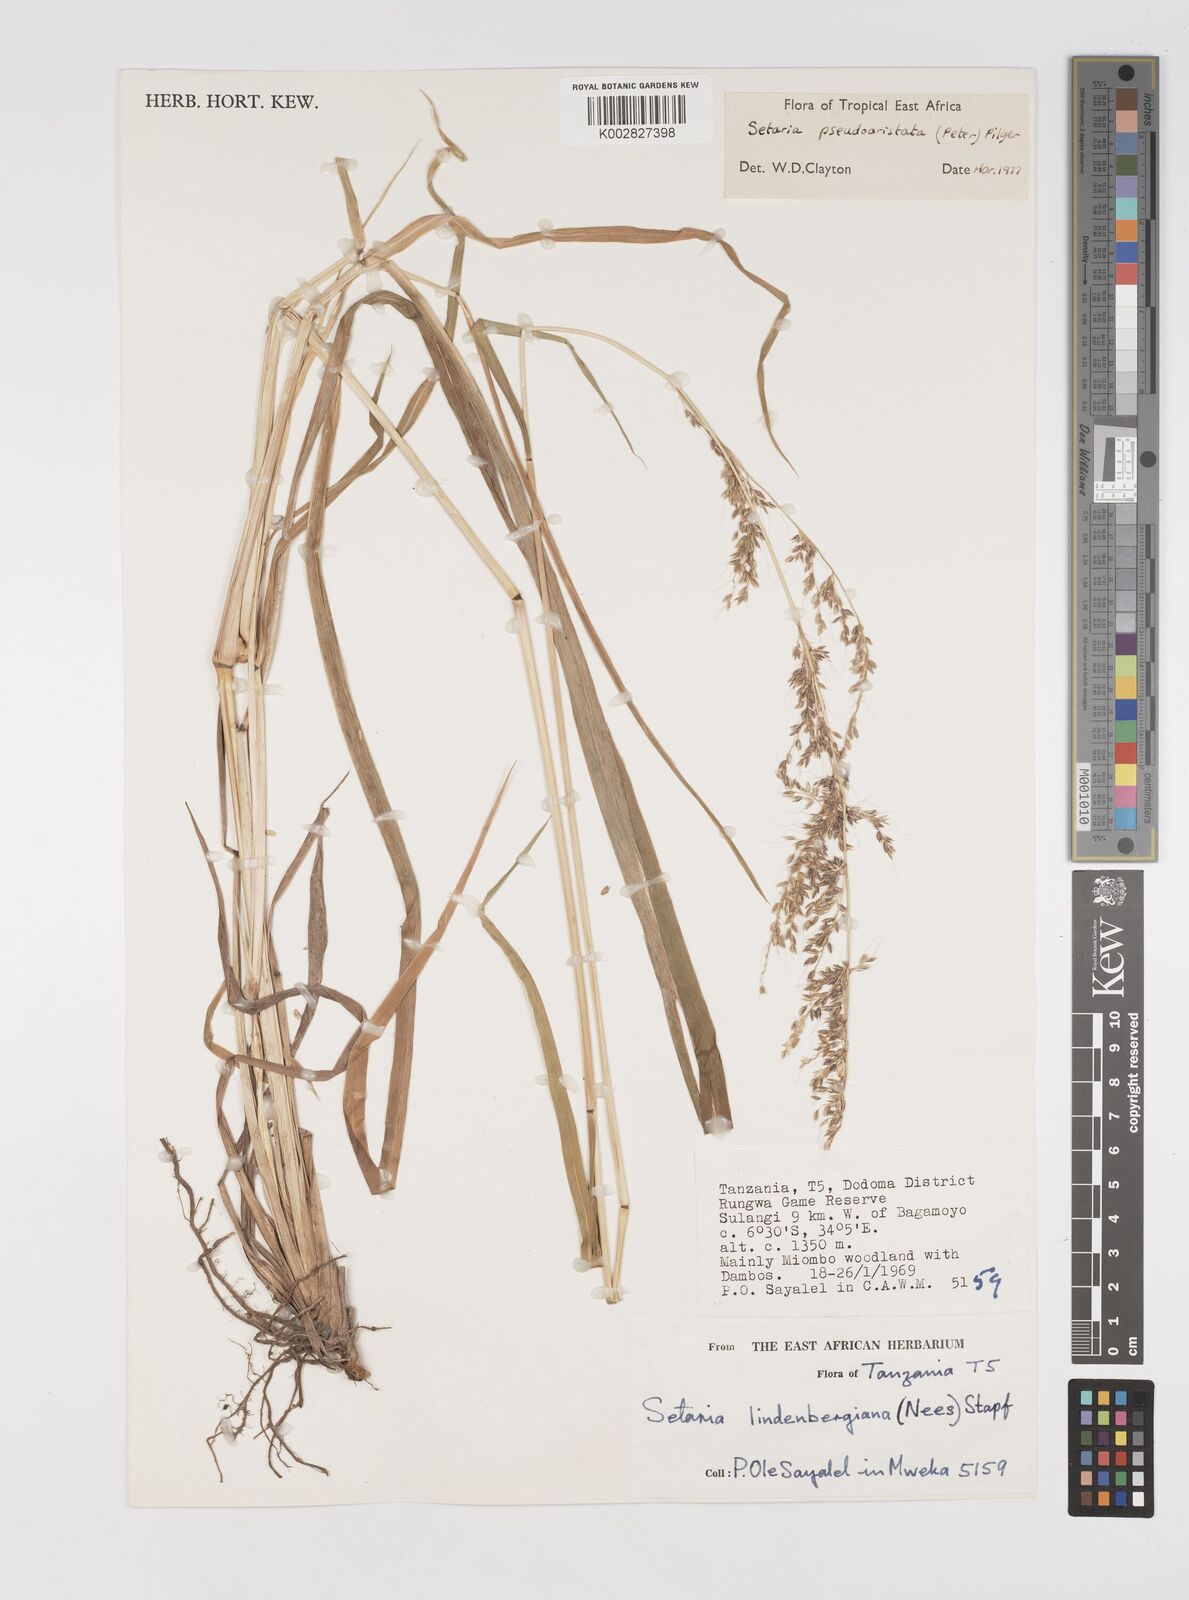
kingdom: Plantae
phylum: Tracheophyta
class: Liliopsida
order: Poales
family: Poaceae
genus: Setaria
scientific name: Setaria pseudaristata
